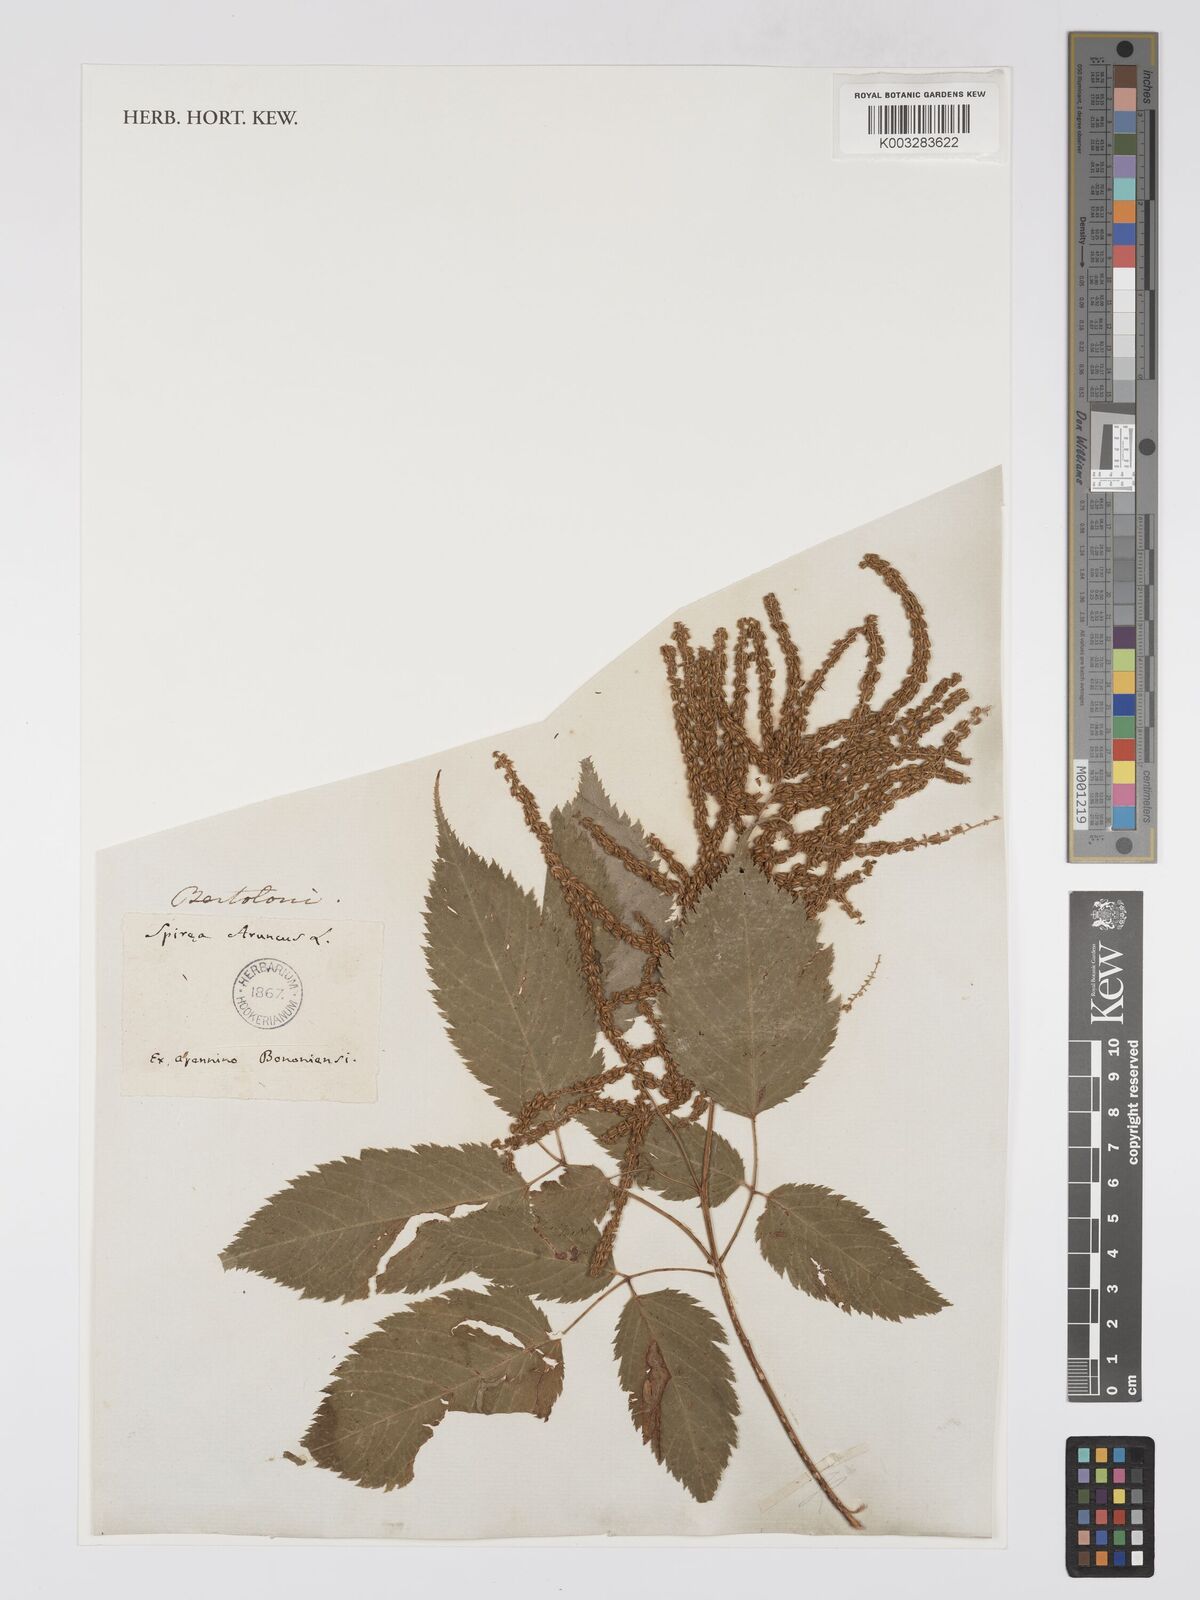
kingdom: Plantae
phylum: Tracheophyta
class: Magnoliopsida
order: Rosales
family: Rosaceae
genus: Aruncus
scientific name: Aruncus dioicus
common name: Buck's-beard
